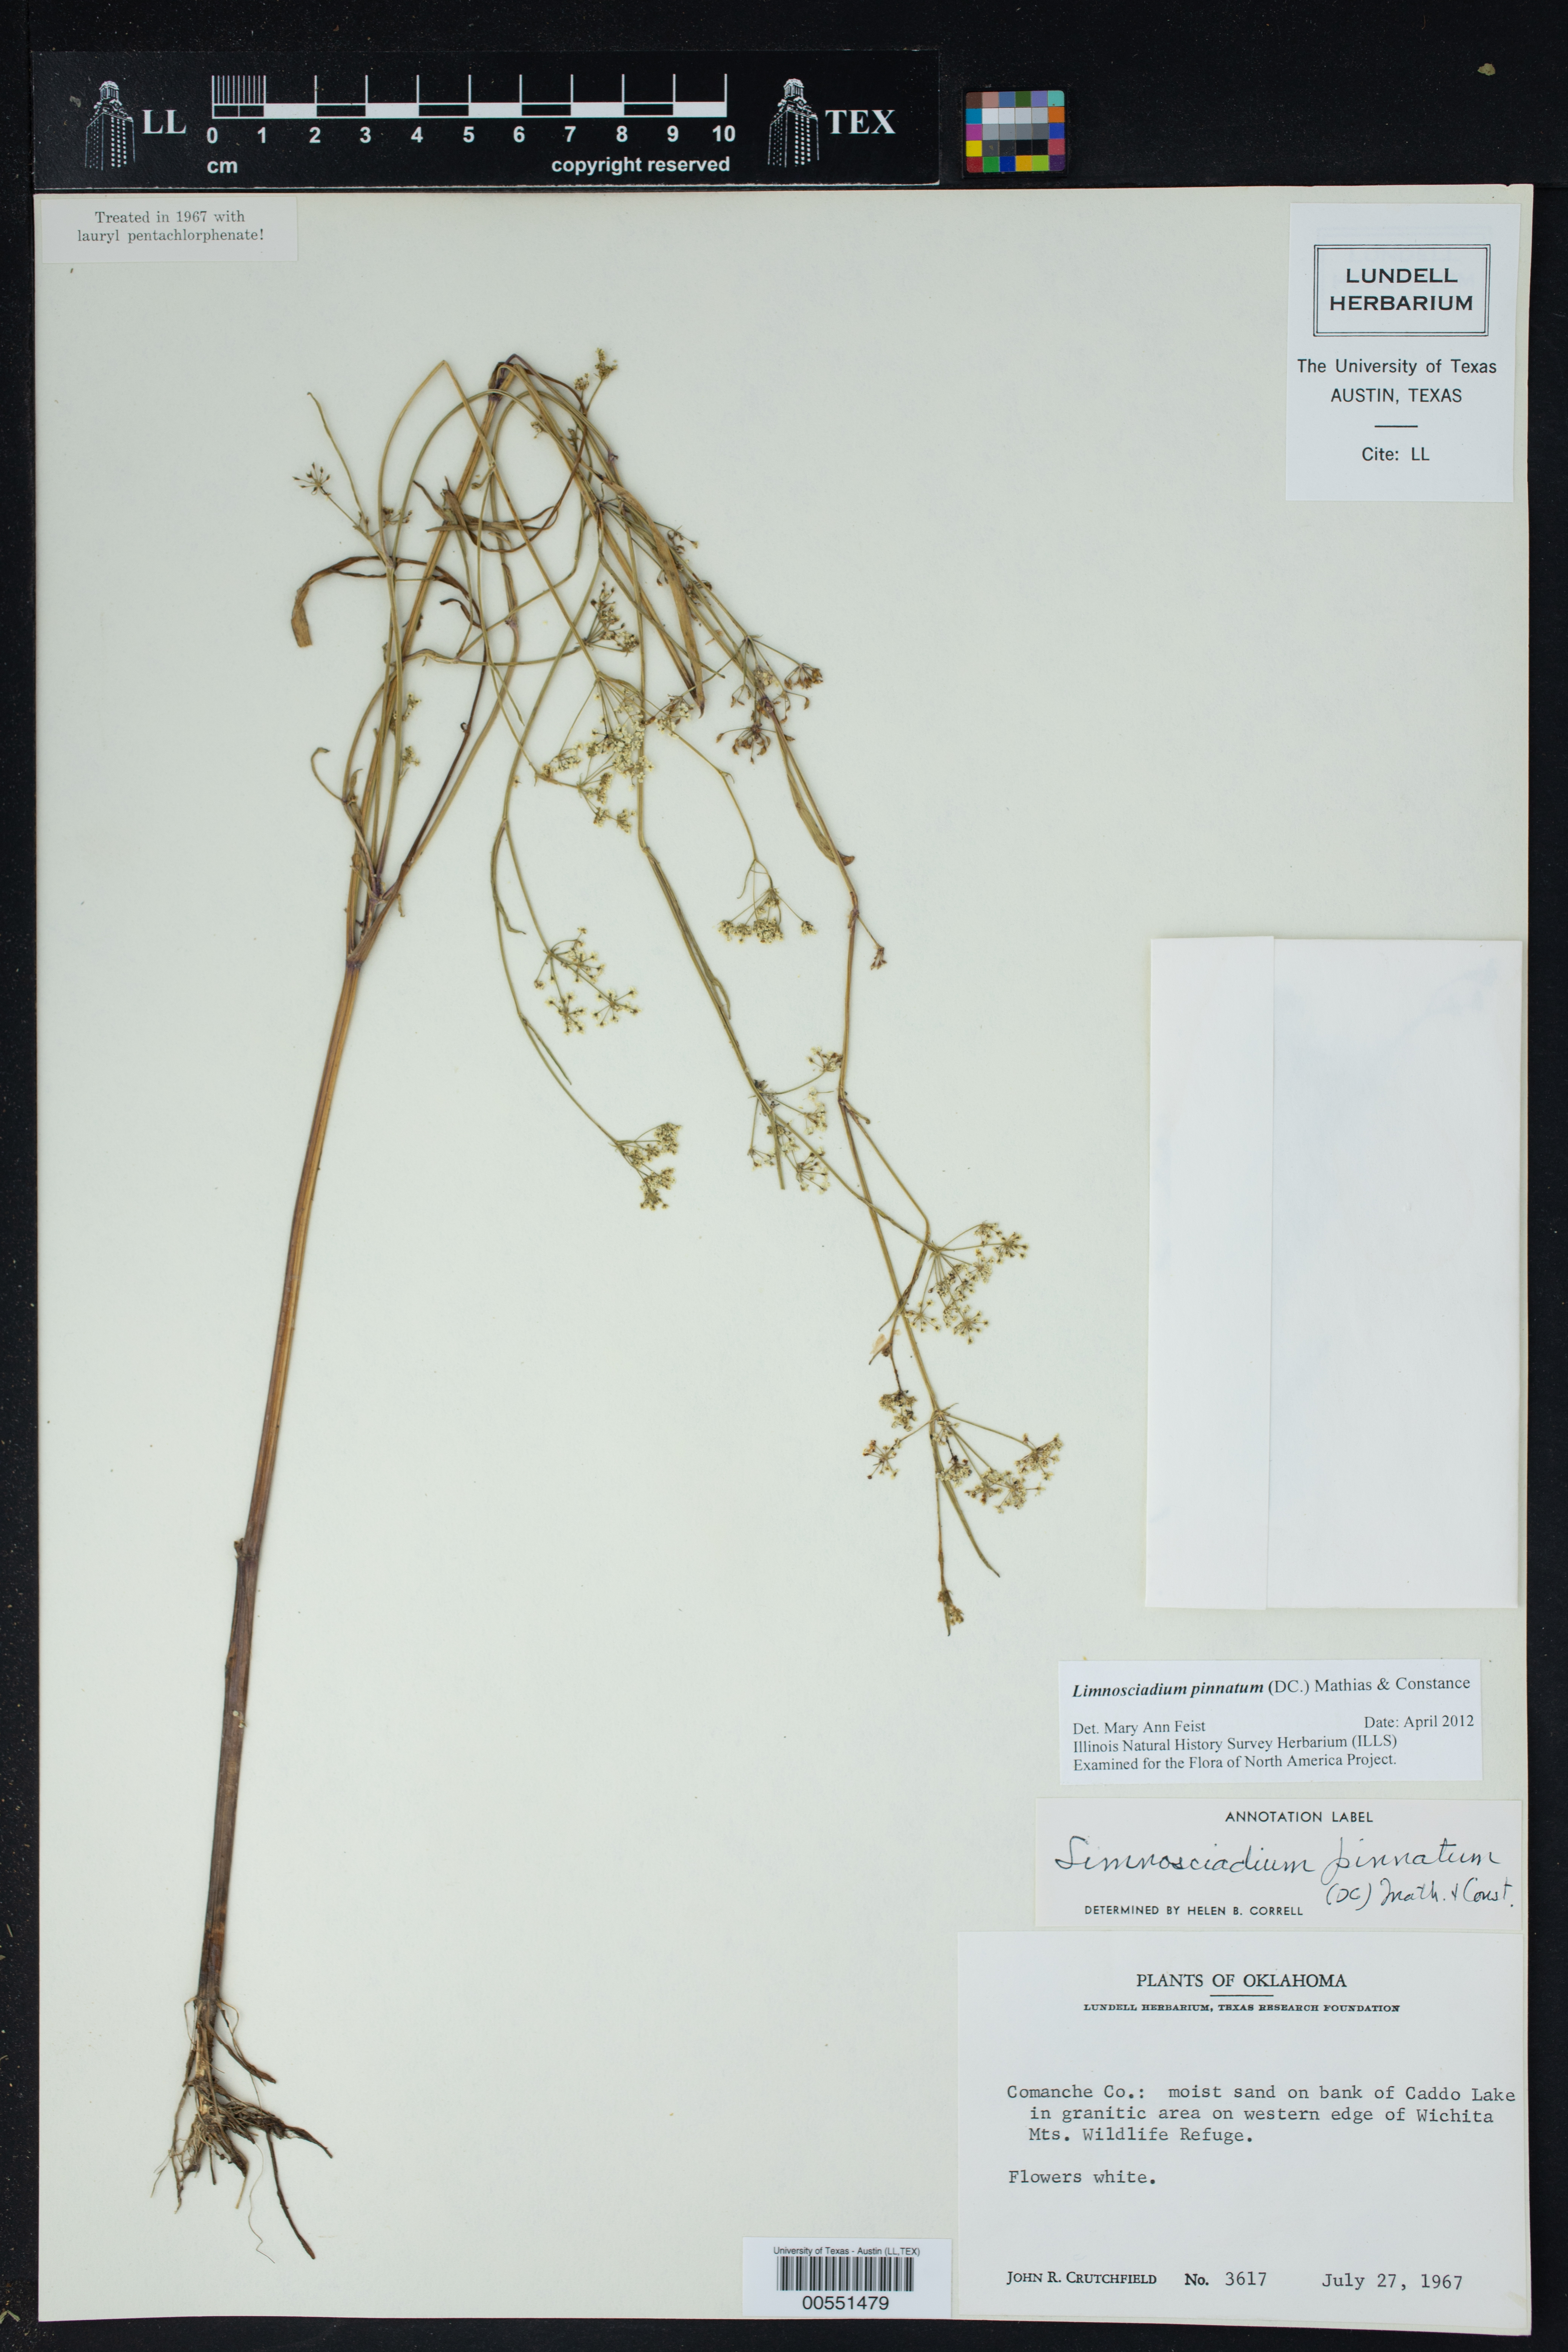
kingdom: Plantae
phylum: Tracheophyta
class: Magnoliopsida
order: Apiales
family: Apiaceae
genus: Limnosciadium
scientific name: Limnosciadium pinnatum
